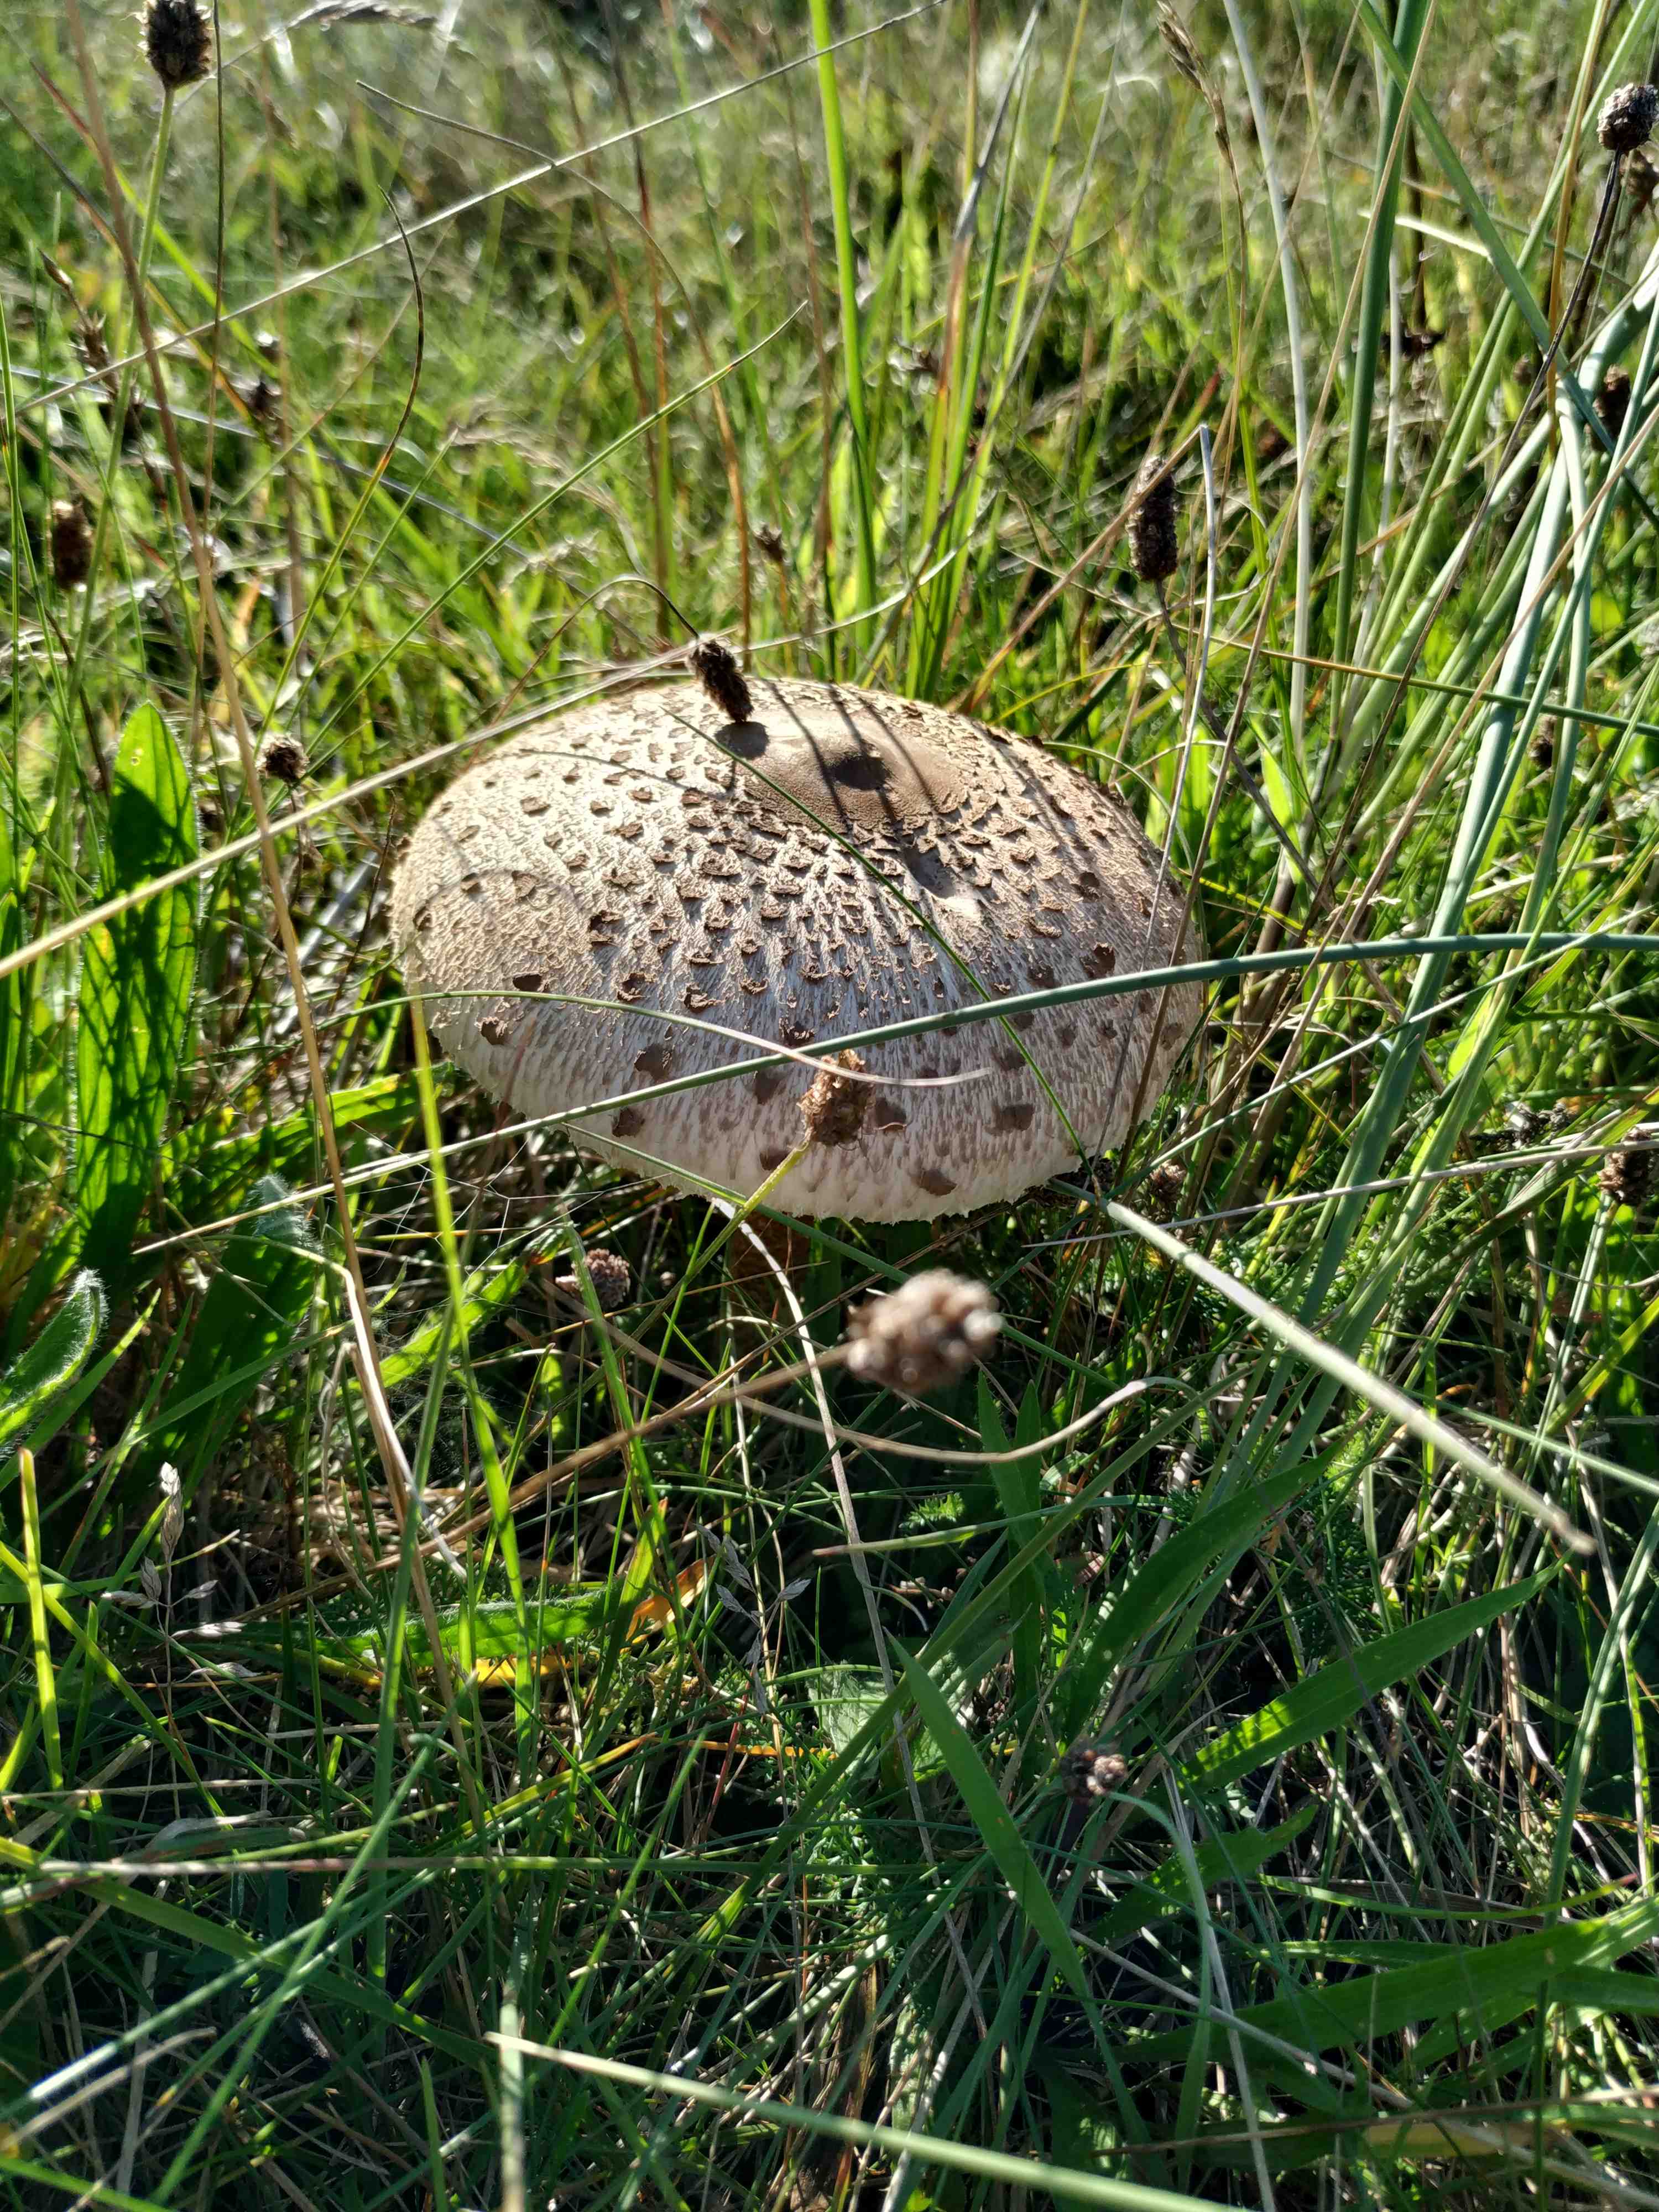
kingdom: Fungi
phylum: Basidiomycota
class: Agaricomycetes
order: Agaricales
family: Agaricaceae
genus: Macrolepiota
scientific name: Macrolepiota procera
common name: stor kæmpeparasolhat
